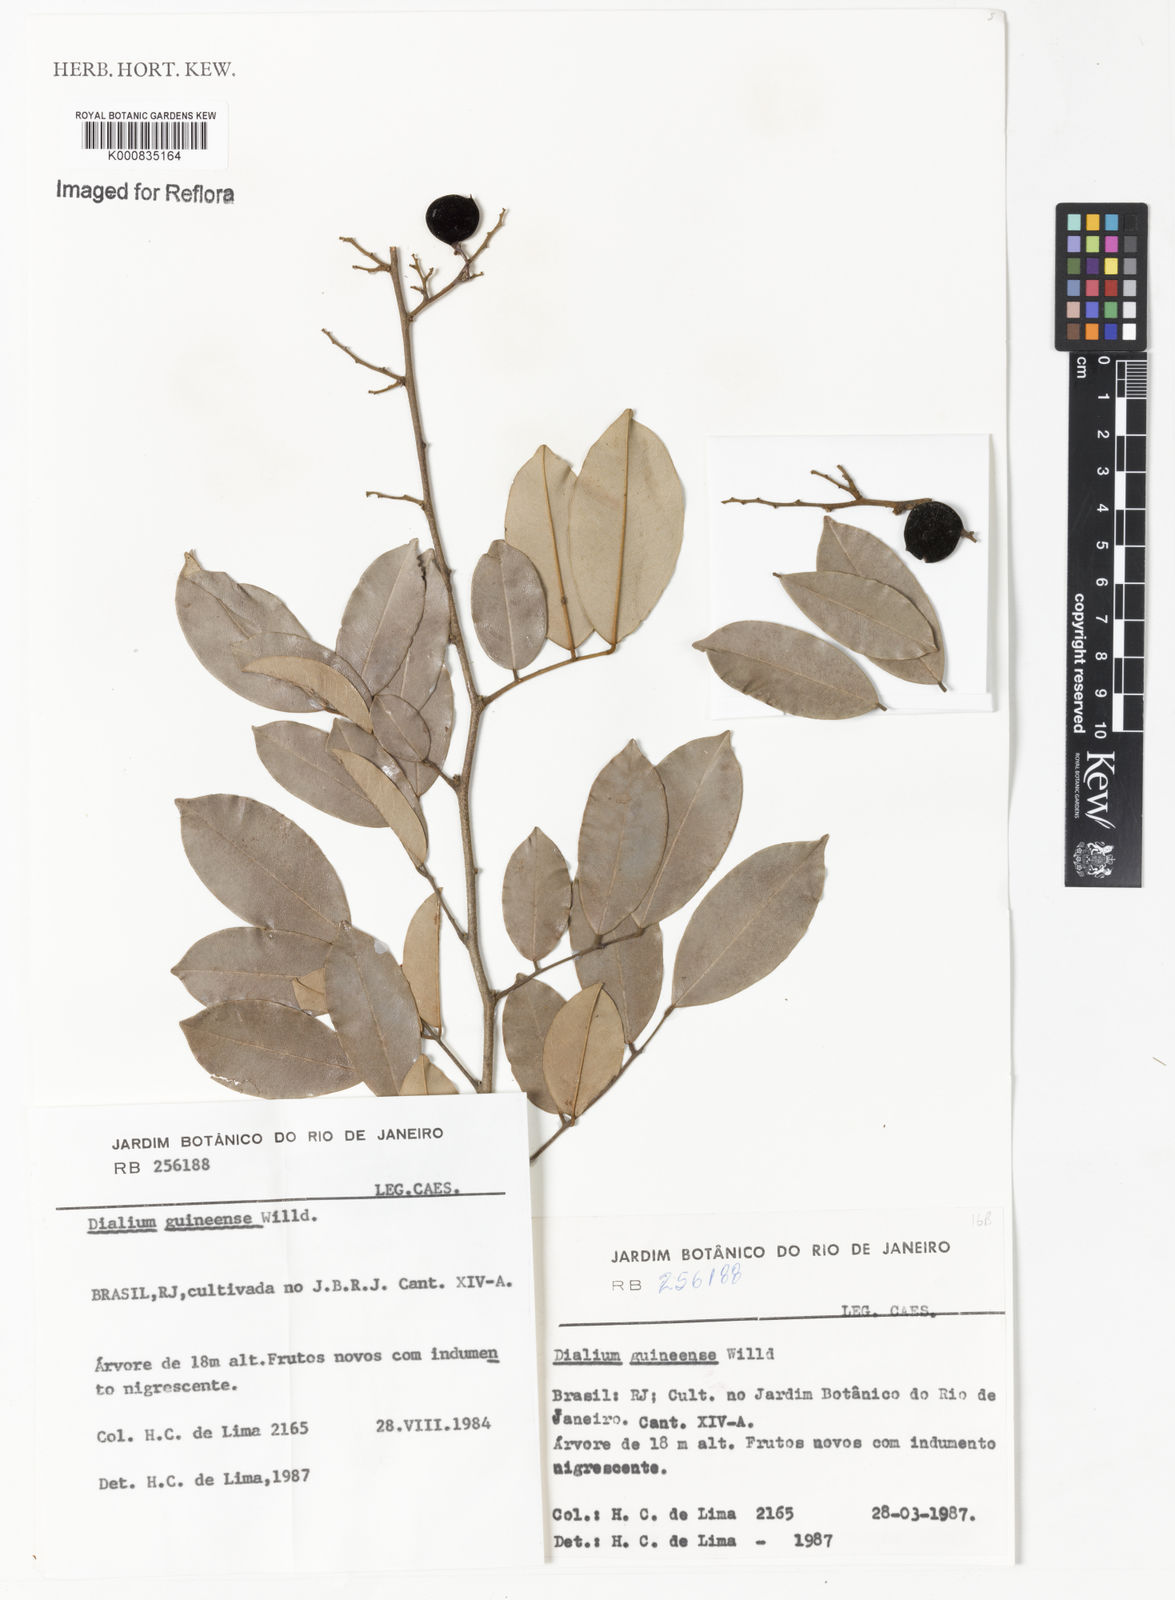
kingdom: Plantae
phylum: Tracheophyta
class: Magnoliopsida
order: Fabales
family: Fabaceae
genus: Dialium
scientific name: Dialium guineense
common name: Sierra leone-tamarind
